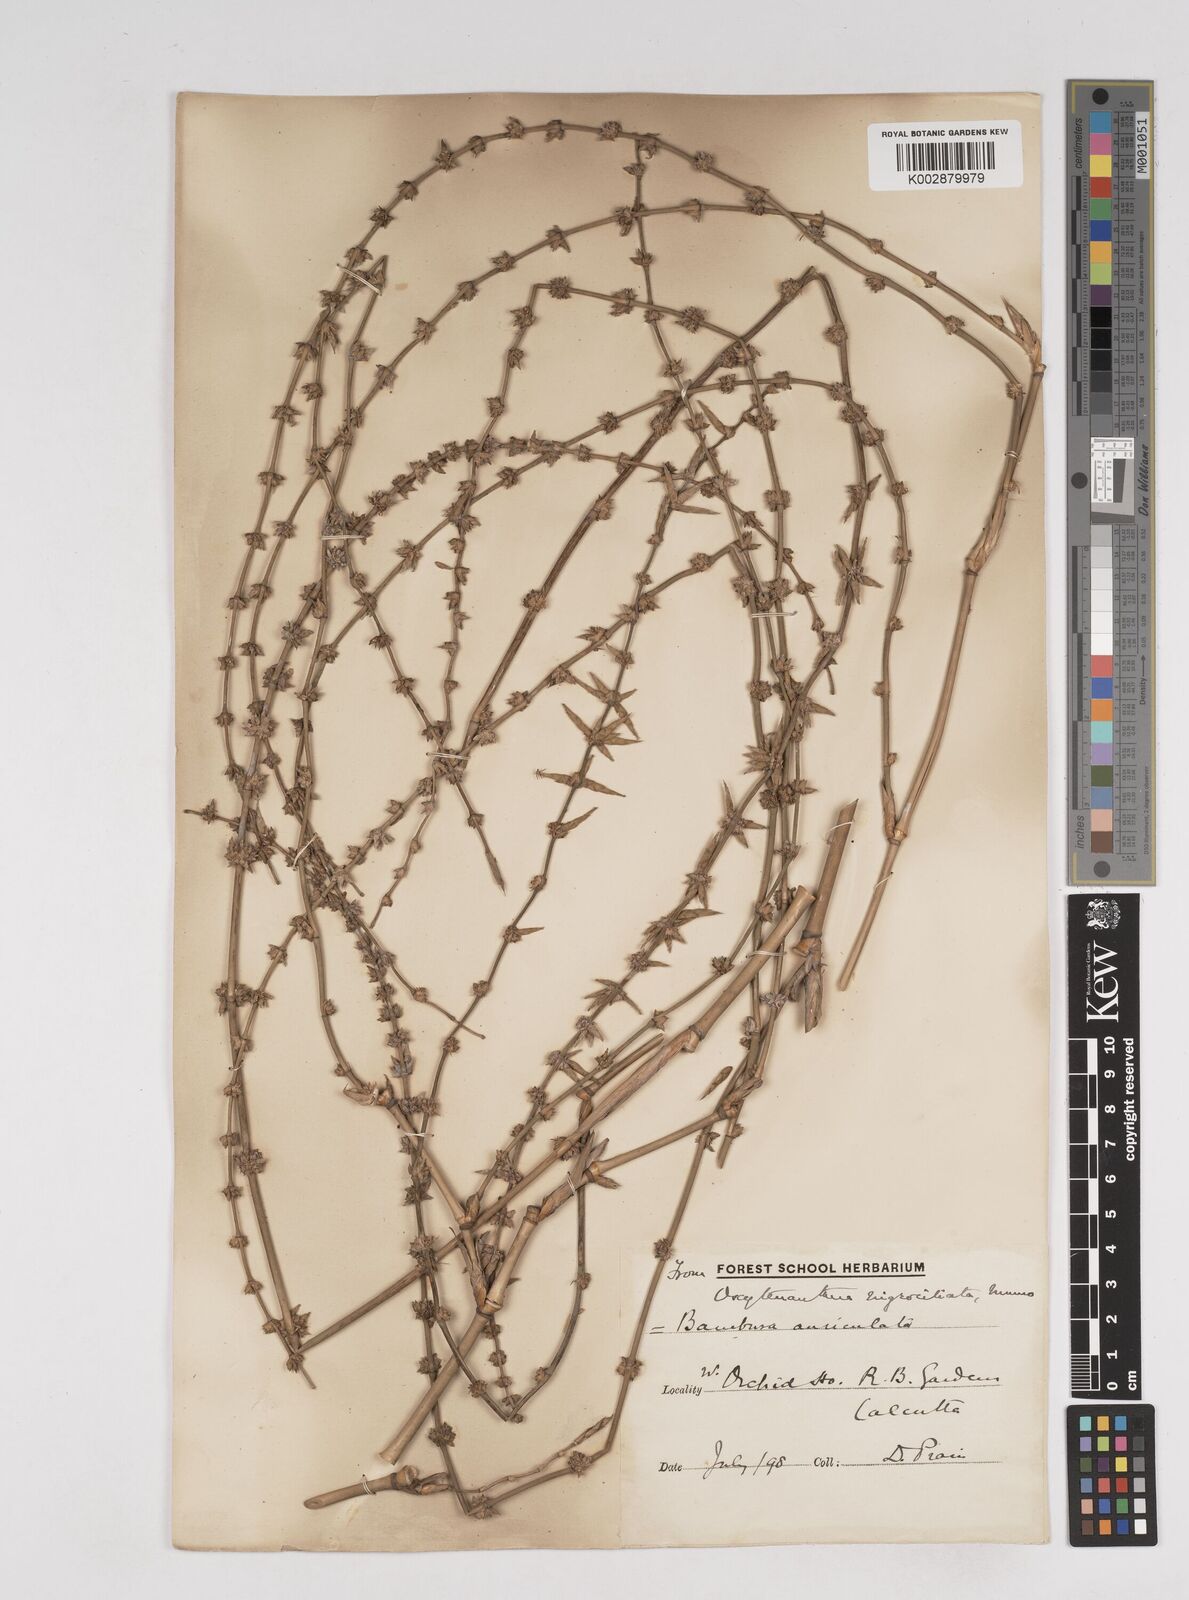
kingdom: Plantae
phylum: Tracheophyta
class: Liliopsida
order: Poales
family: Poaceae
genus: Gigantochloa
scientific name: Gigantochloa nigrociliata
